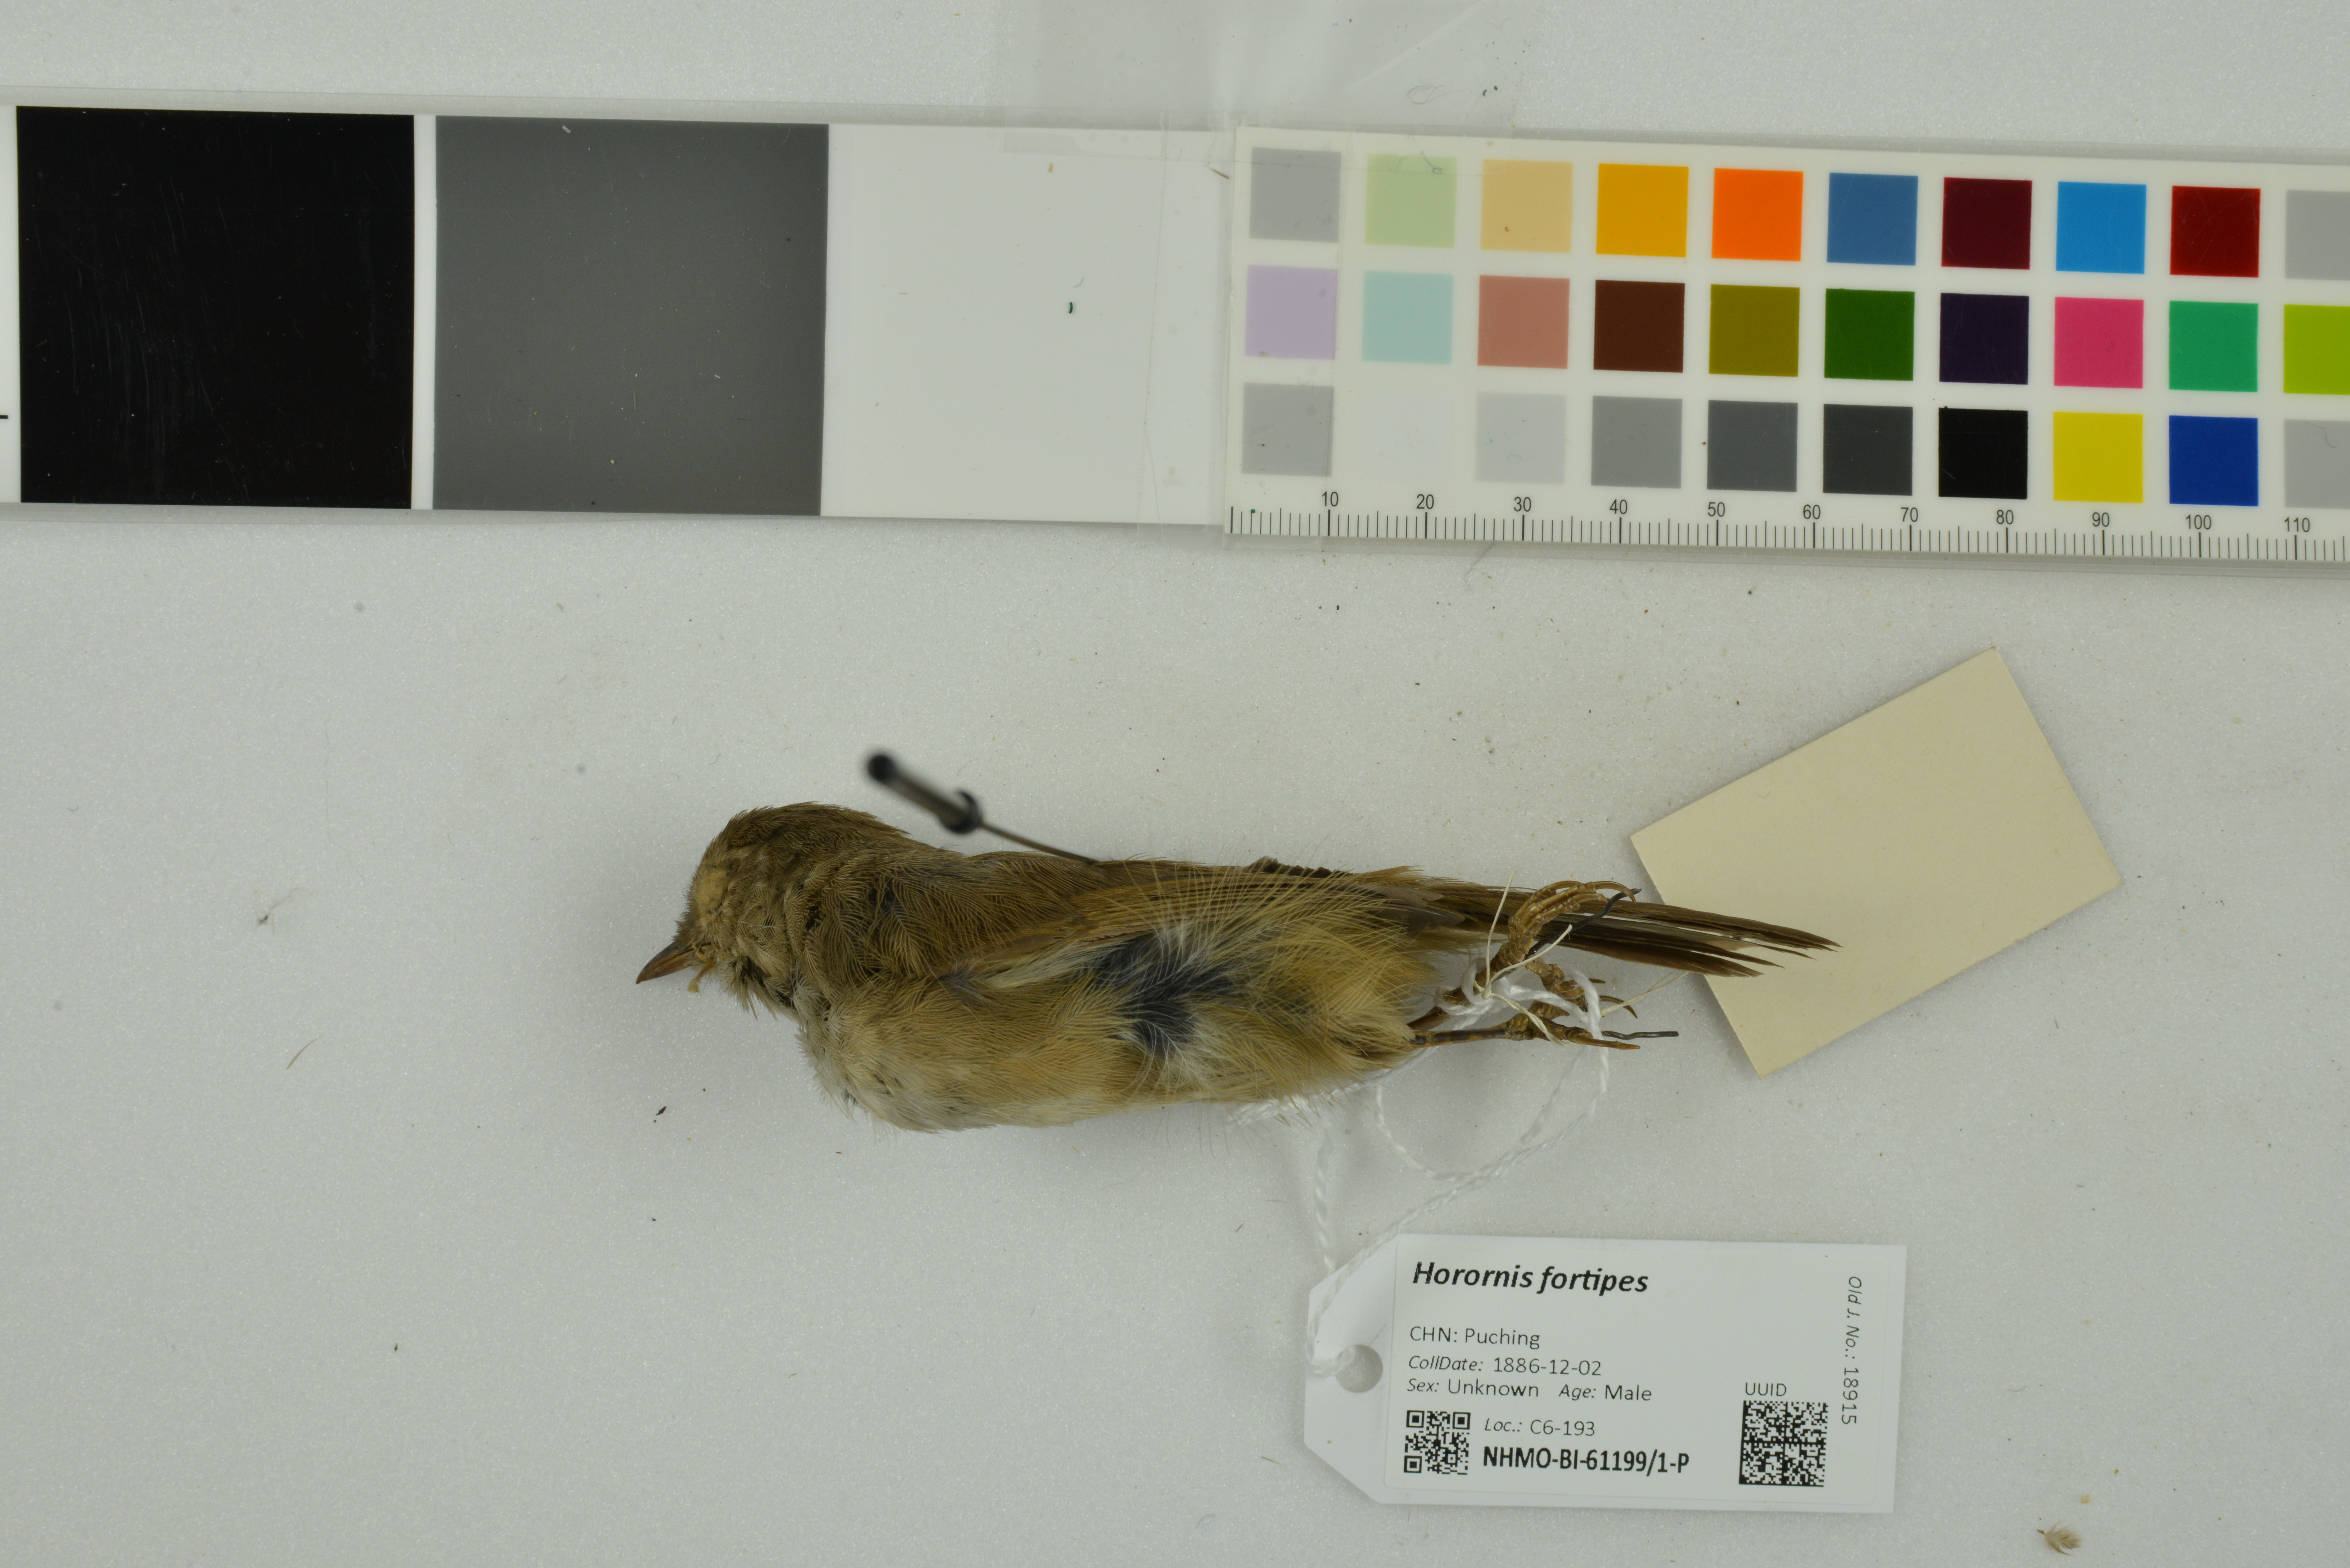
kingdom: Animalia
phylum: Chordata
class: Aves
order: Passeriformes
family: Cettiidae
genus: Horornis
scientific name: Horornis fortipes
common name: Brown-flanked bush warbler
